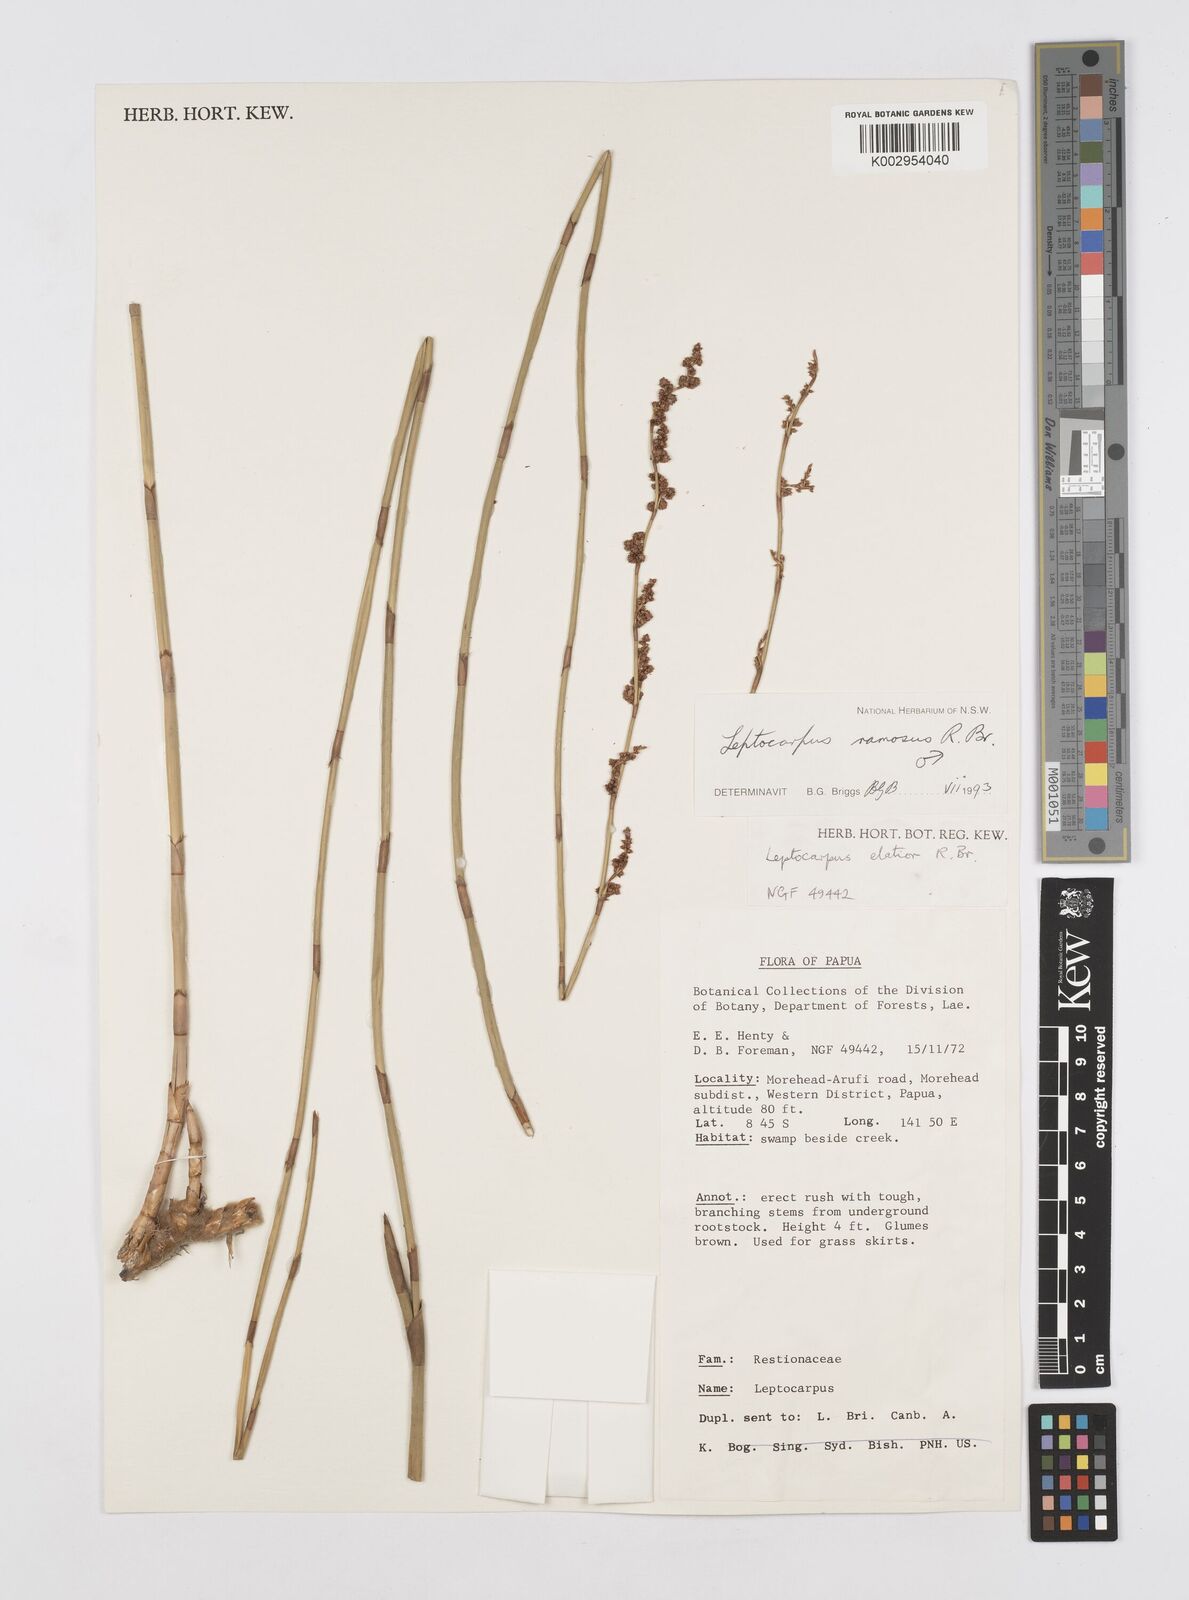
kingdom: Plantae
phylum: Tracheophyta
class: Liliopsida
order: Poales
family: Restionaceae
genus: Dapsilanthus
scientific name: Dapsilanthus ramosus
